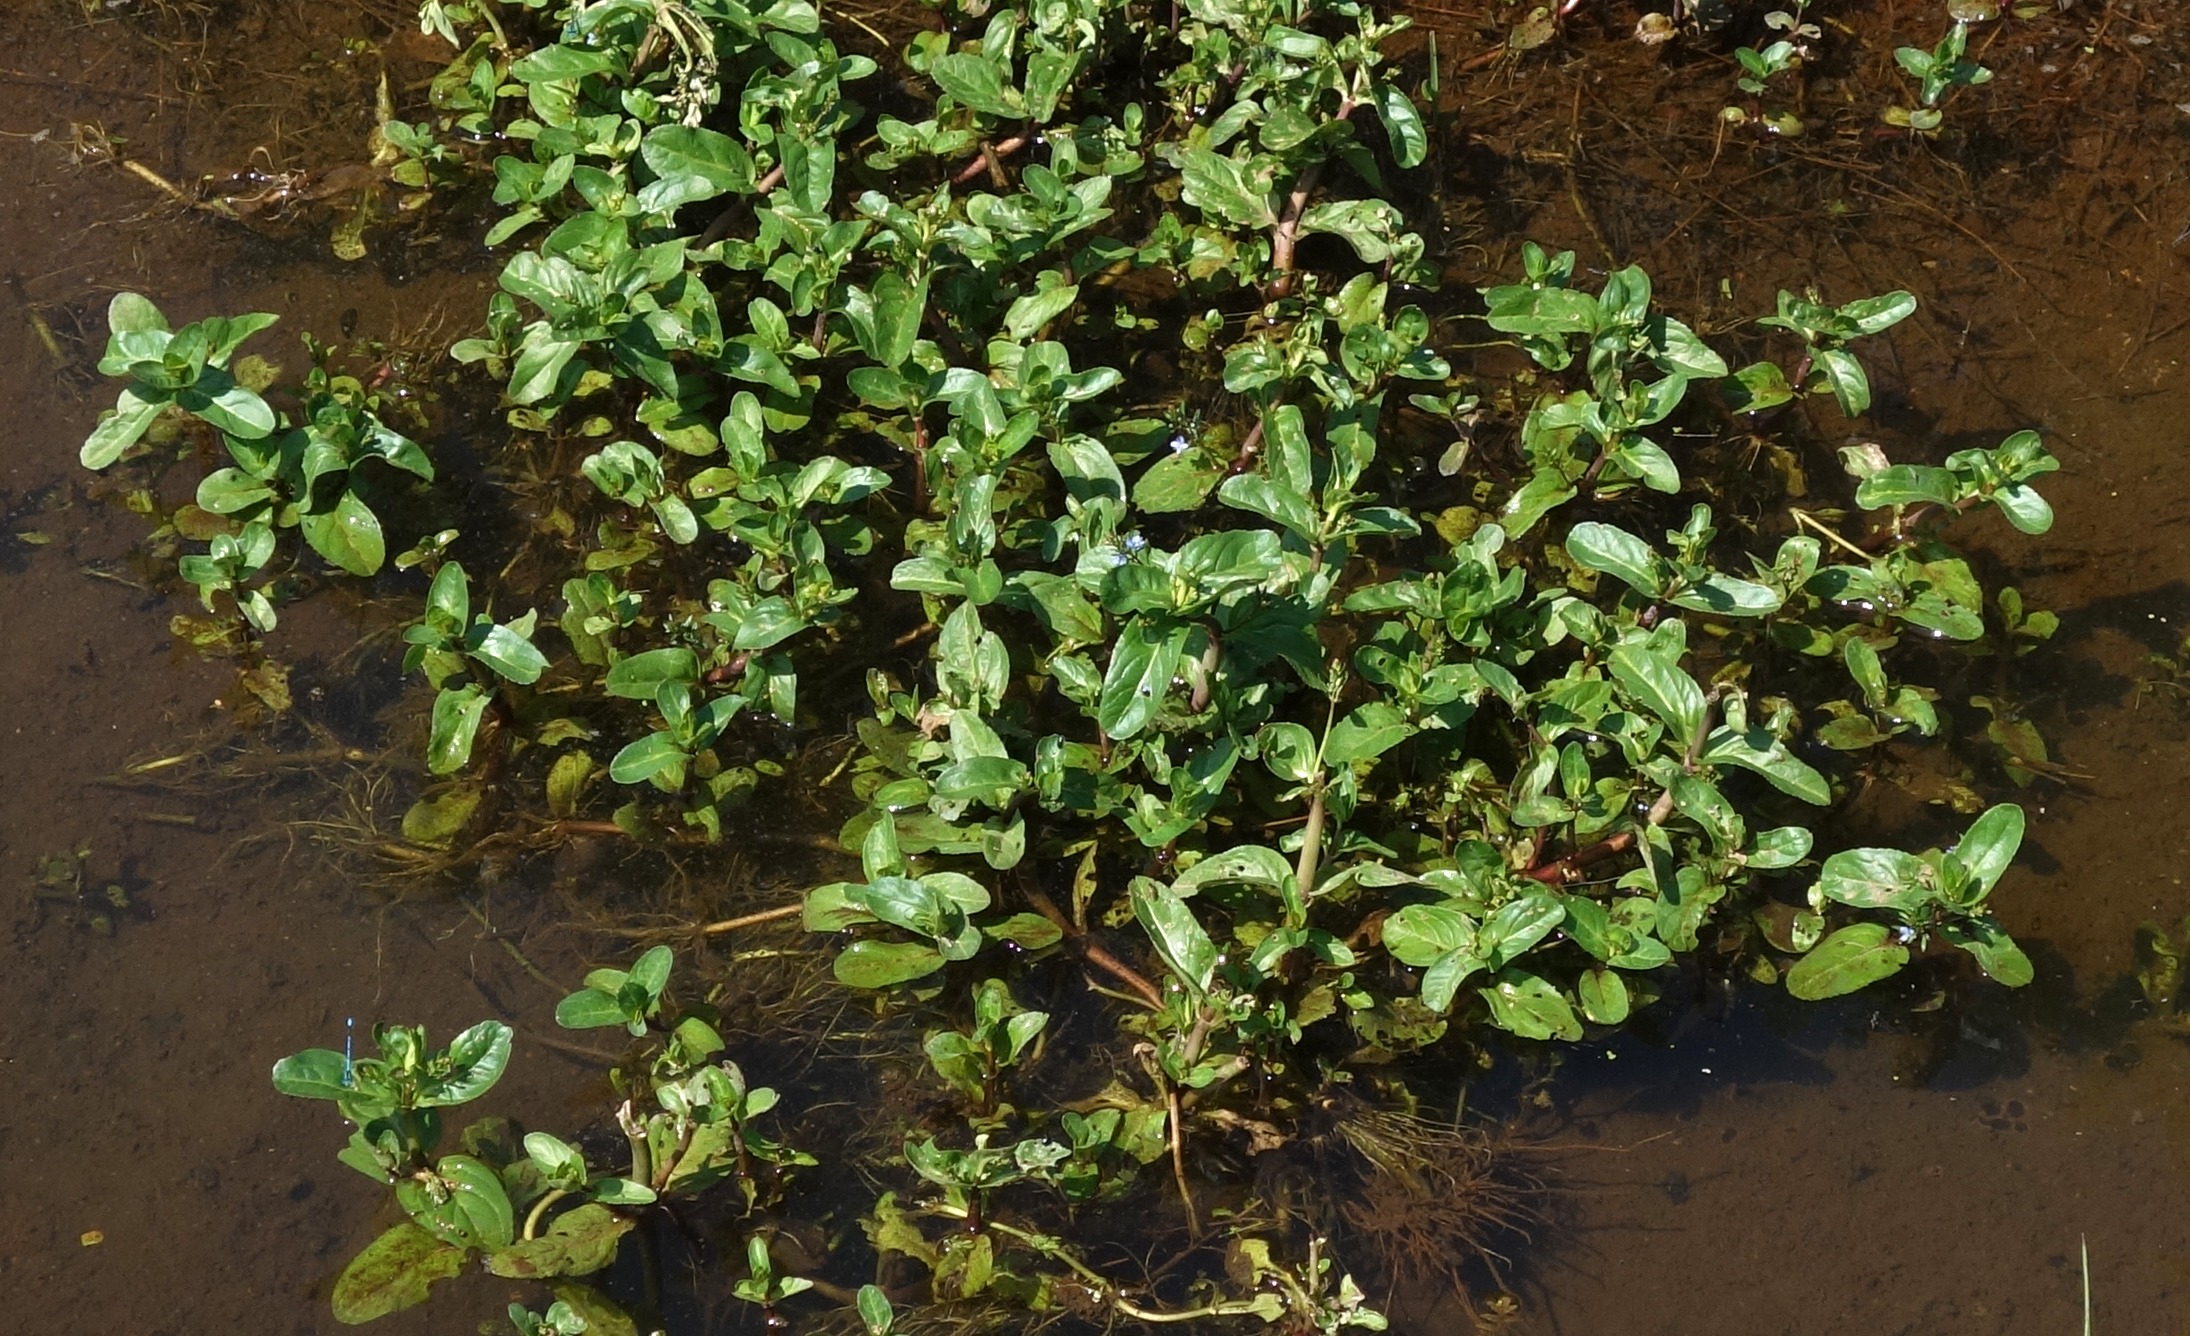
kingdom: Plantae
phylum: Tracheophyta
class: Magnoliopsida
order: Lamiales
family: Plantaginaceae
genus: Veronica
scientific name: Veronica beccabunga
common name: Tykbladet ærenpris
